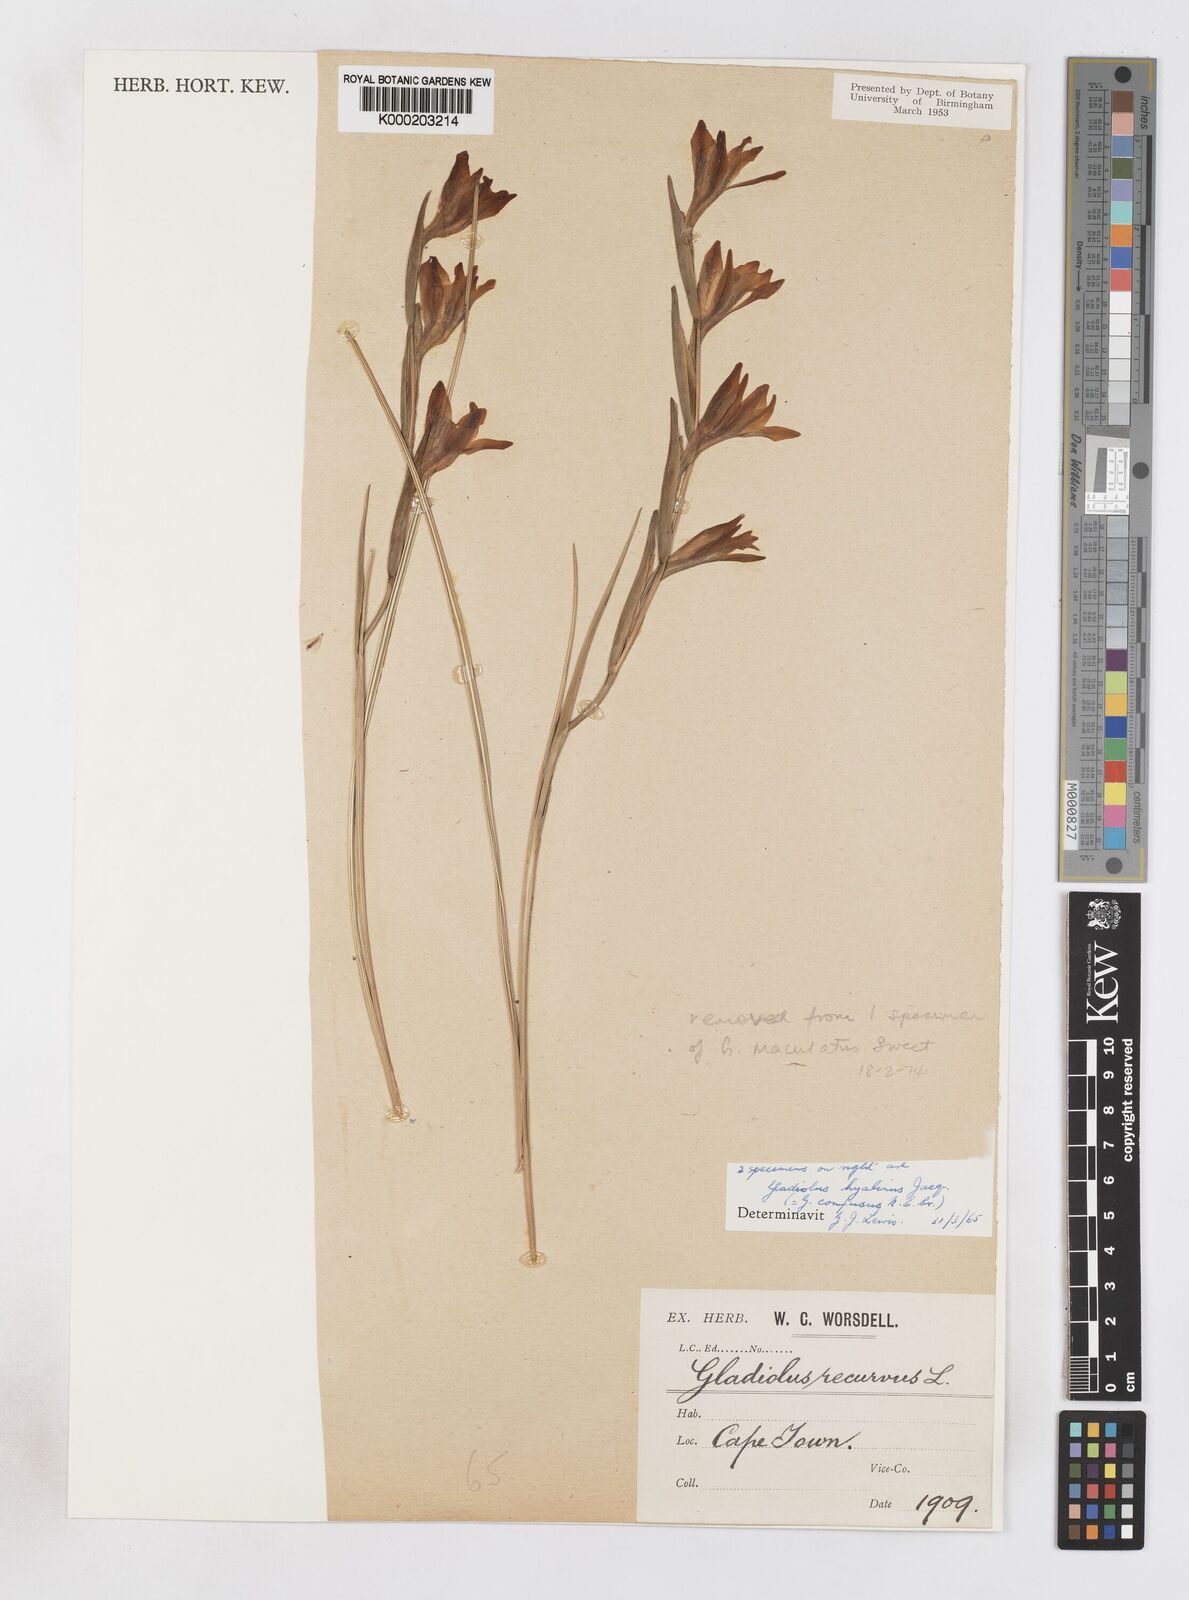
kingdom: Plantae
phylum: Tracheophyta
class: Liliopsida
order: Asparagales
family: Iridaceae
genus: Gladiolus
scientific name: Gladiolus hyalinus
